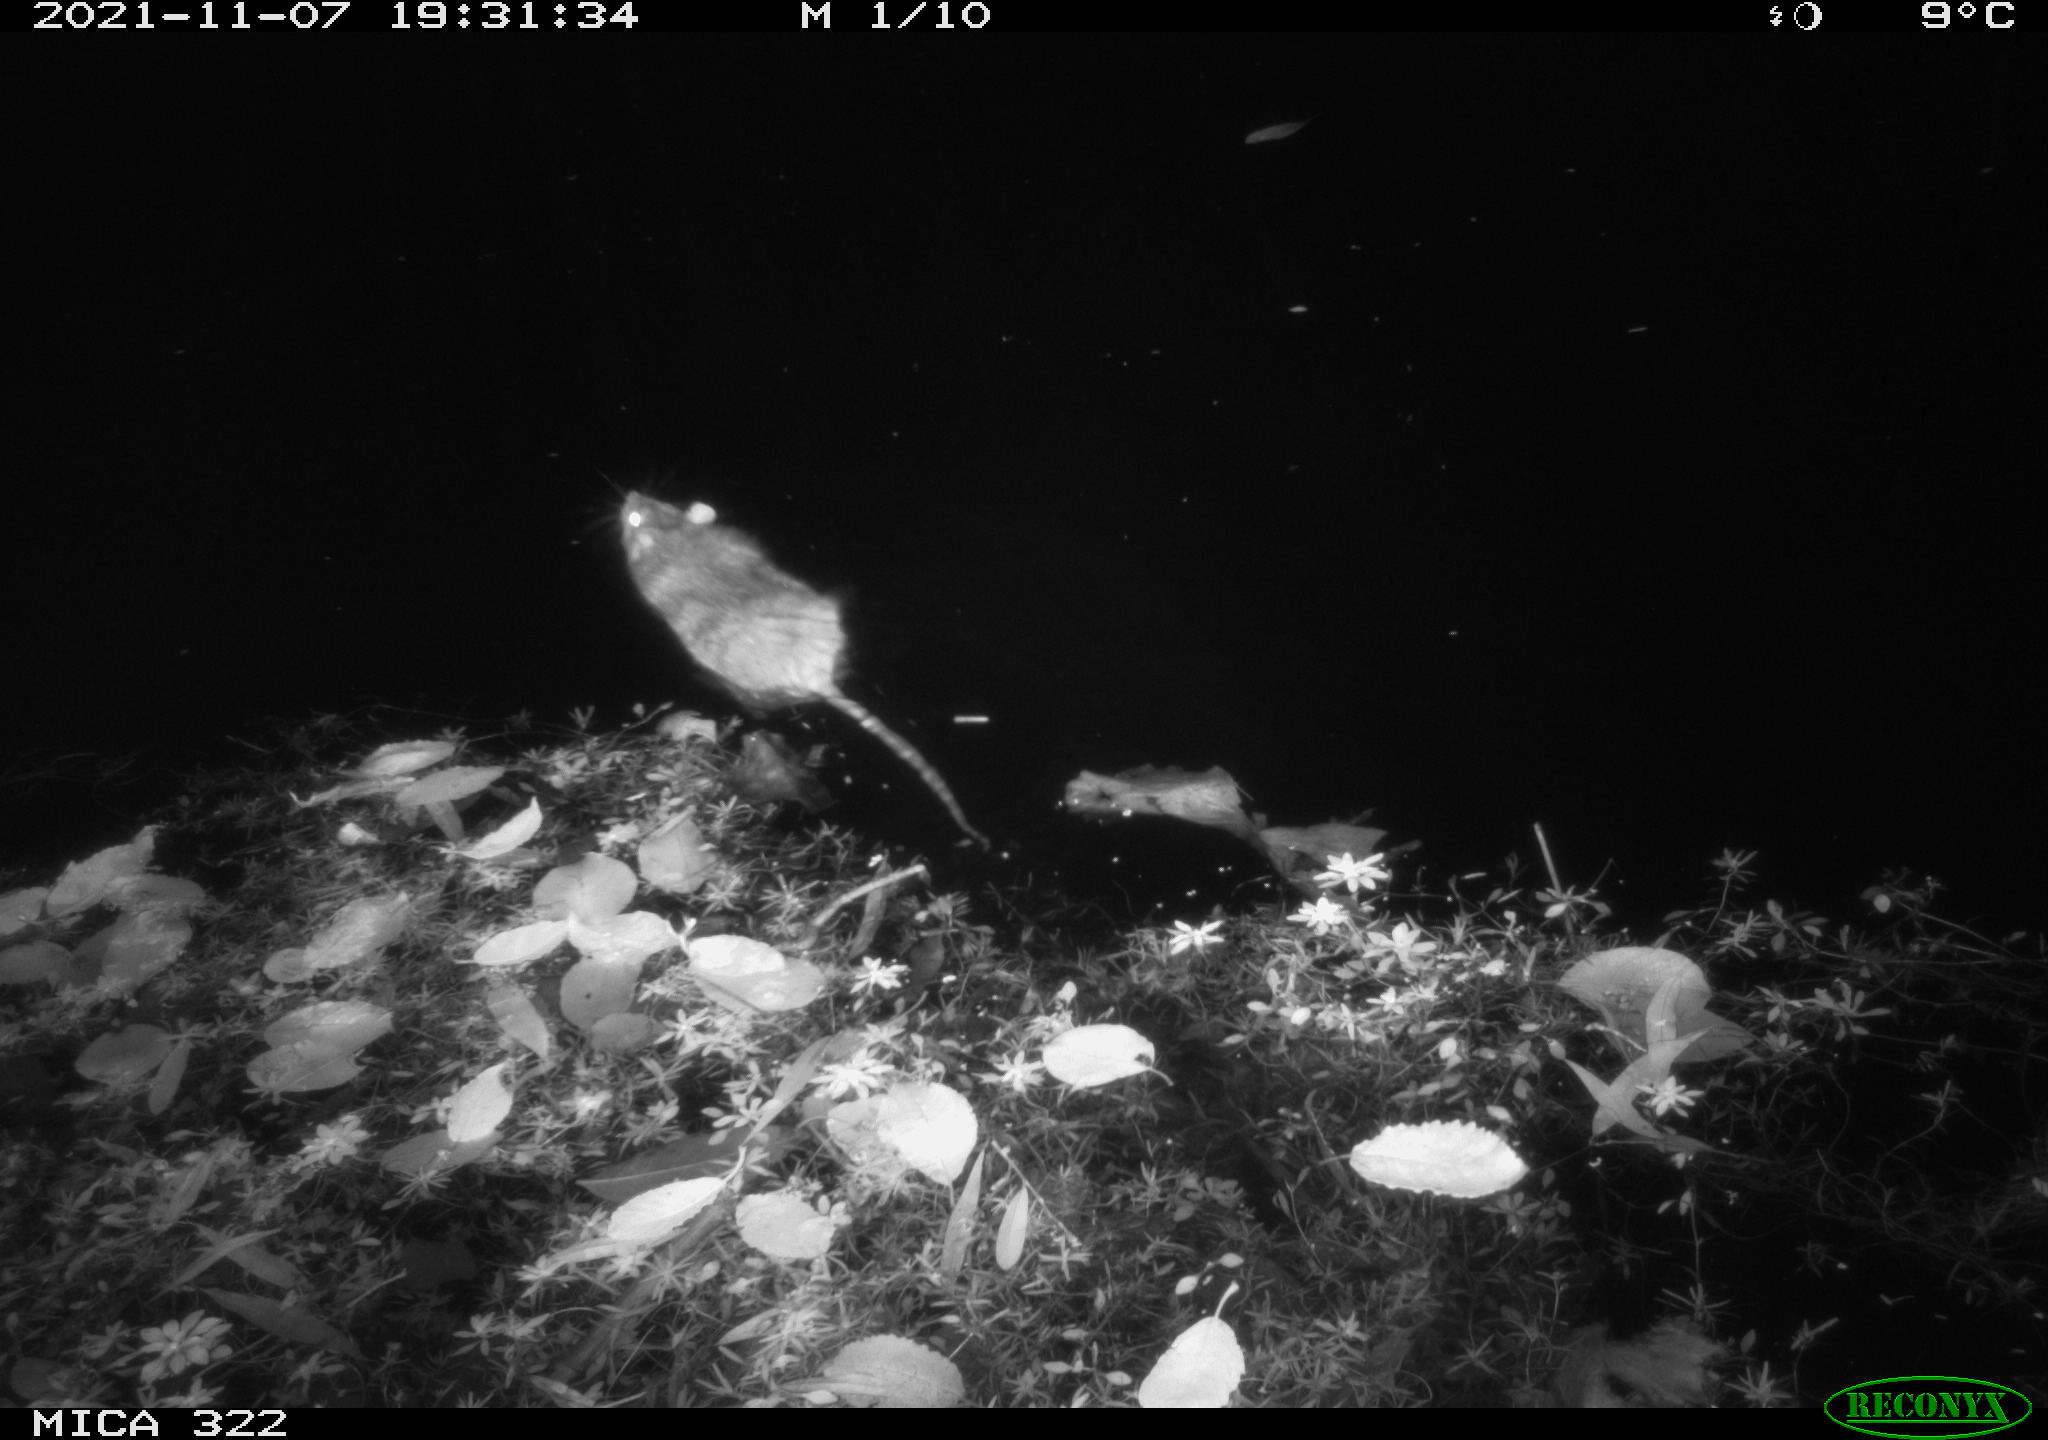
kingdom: Animalia
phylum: Chordata
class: Mammalia
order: Rodentia
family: Muridae
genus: Rattus
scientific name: Rattus norvegicus
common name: Brown rat
